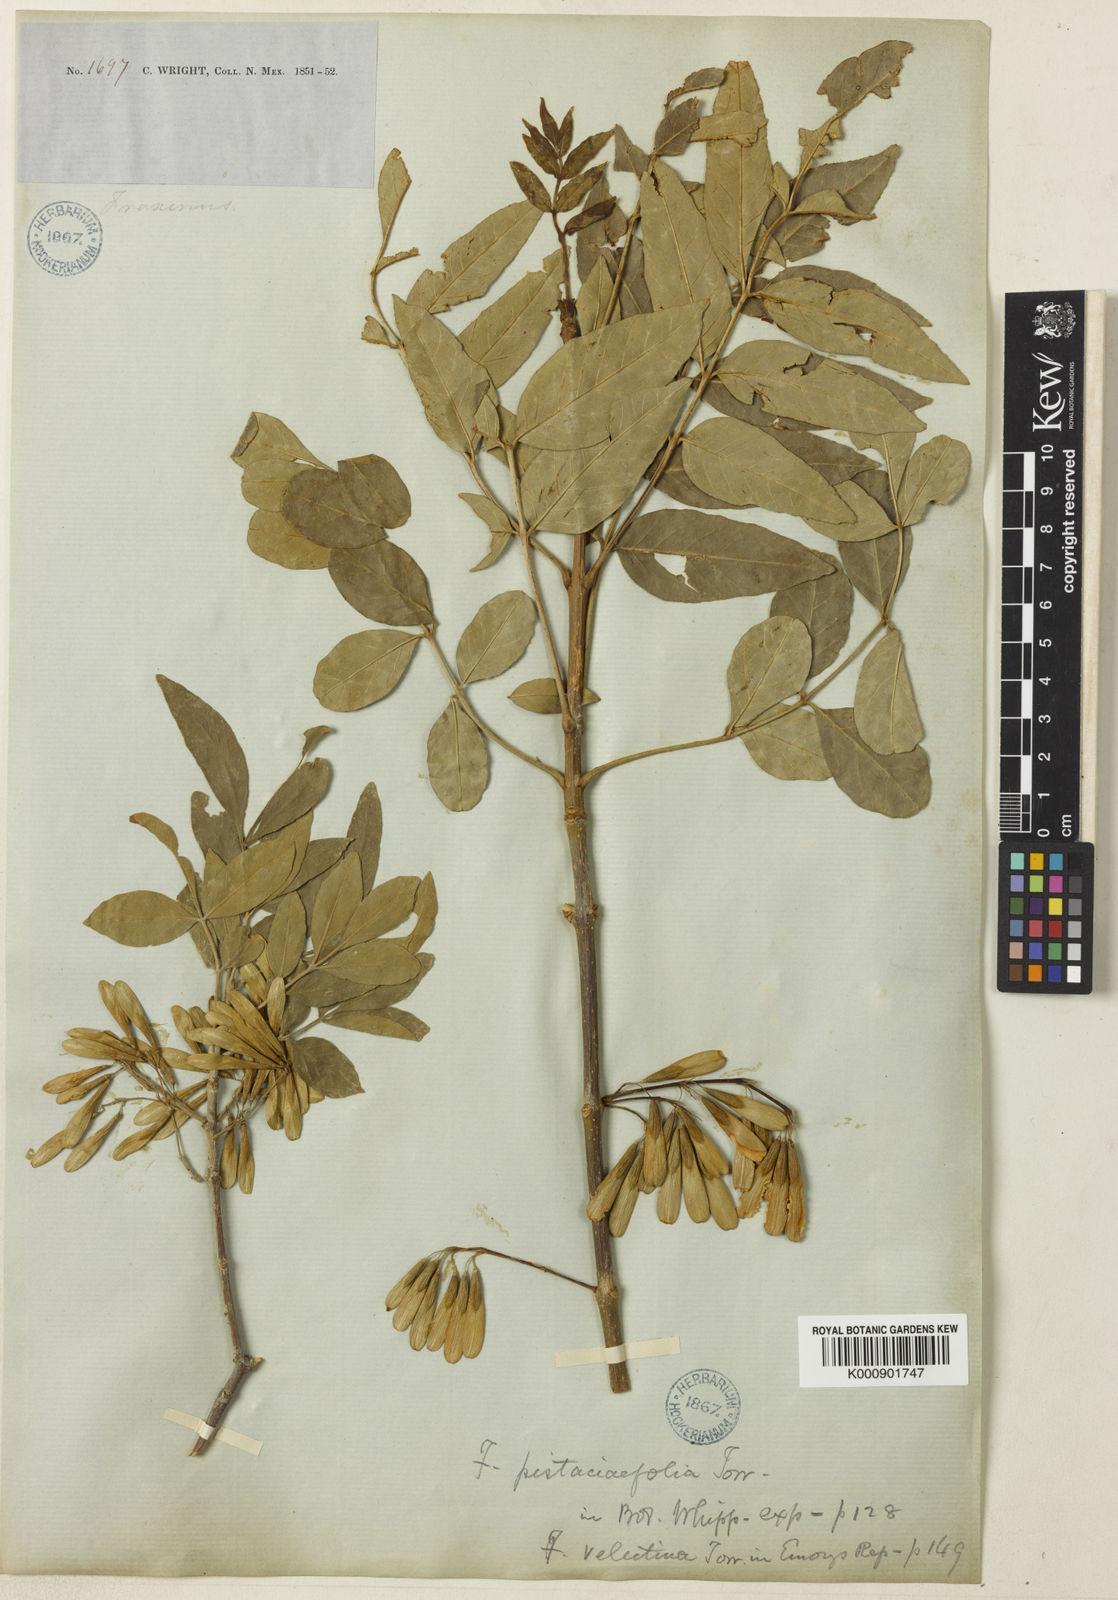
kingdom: Plantae
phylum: Tracheophyta
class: Magnoliopsida
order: Lamiales
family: Oleaceae
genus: Fraxinus
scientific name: Fraxinus velutina
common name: Arizon ash
